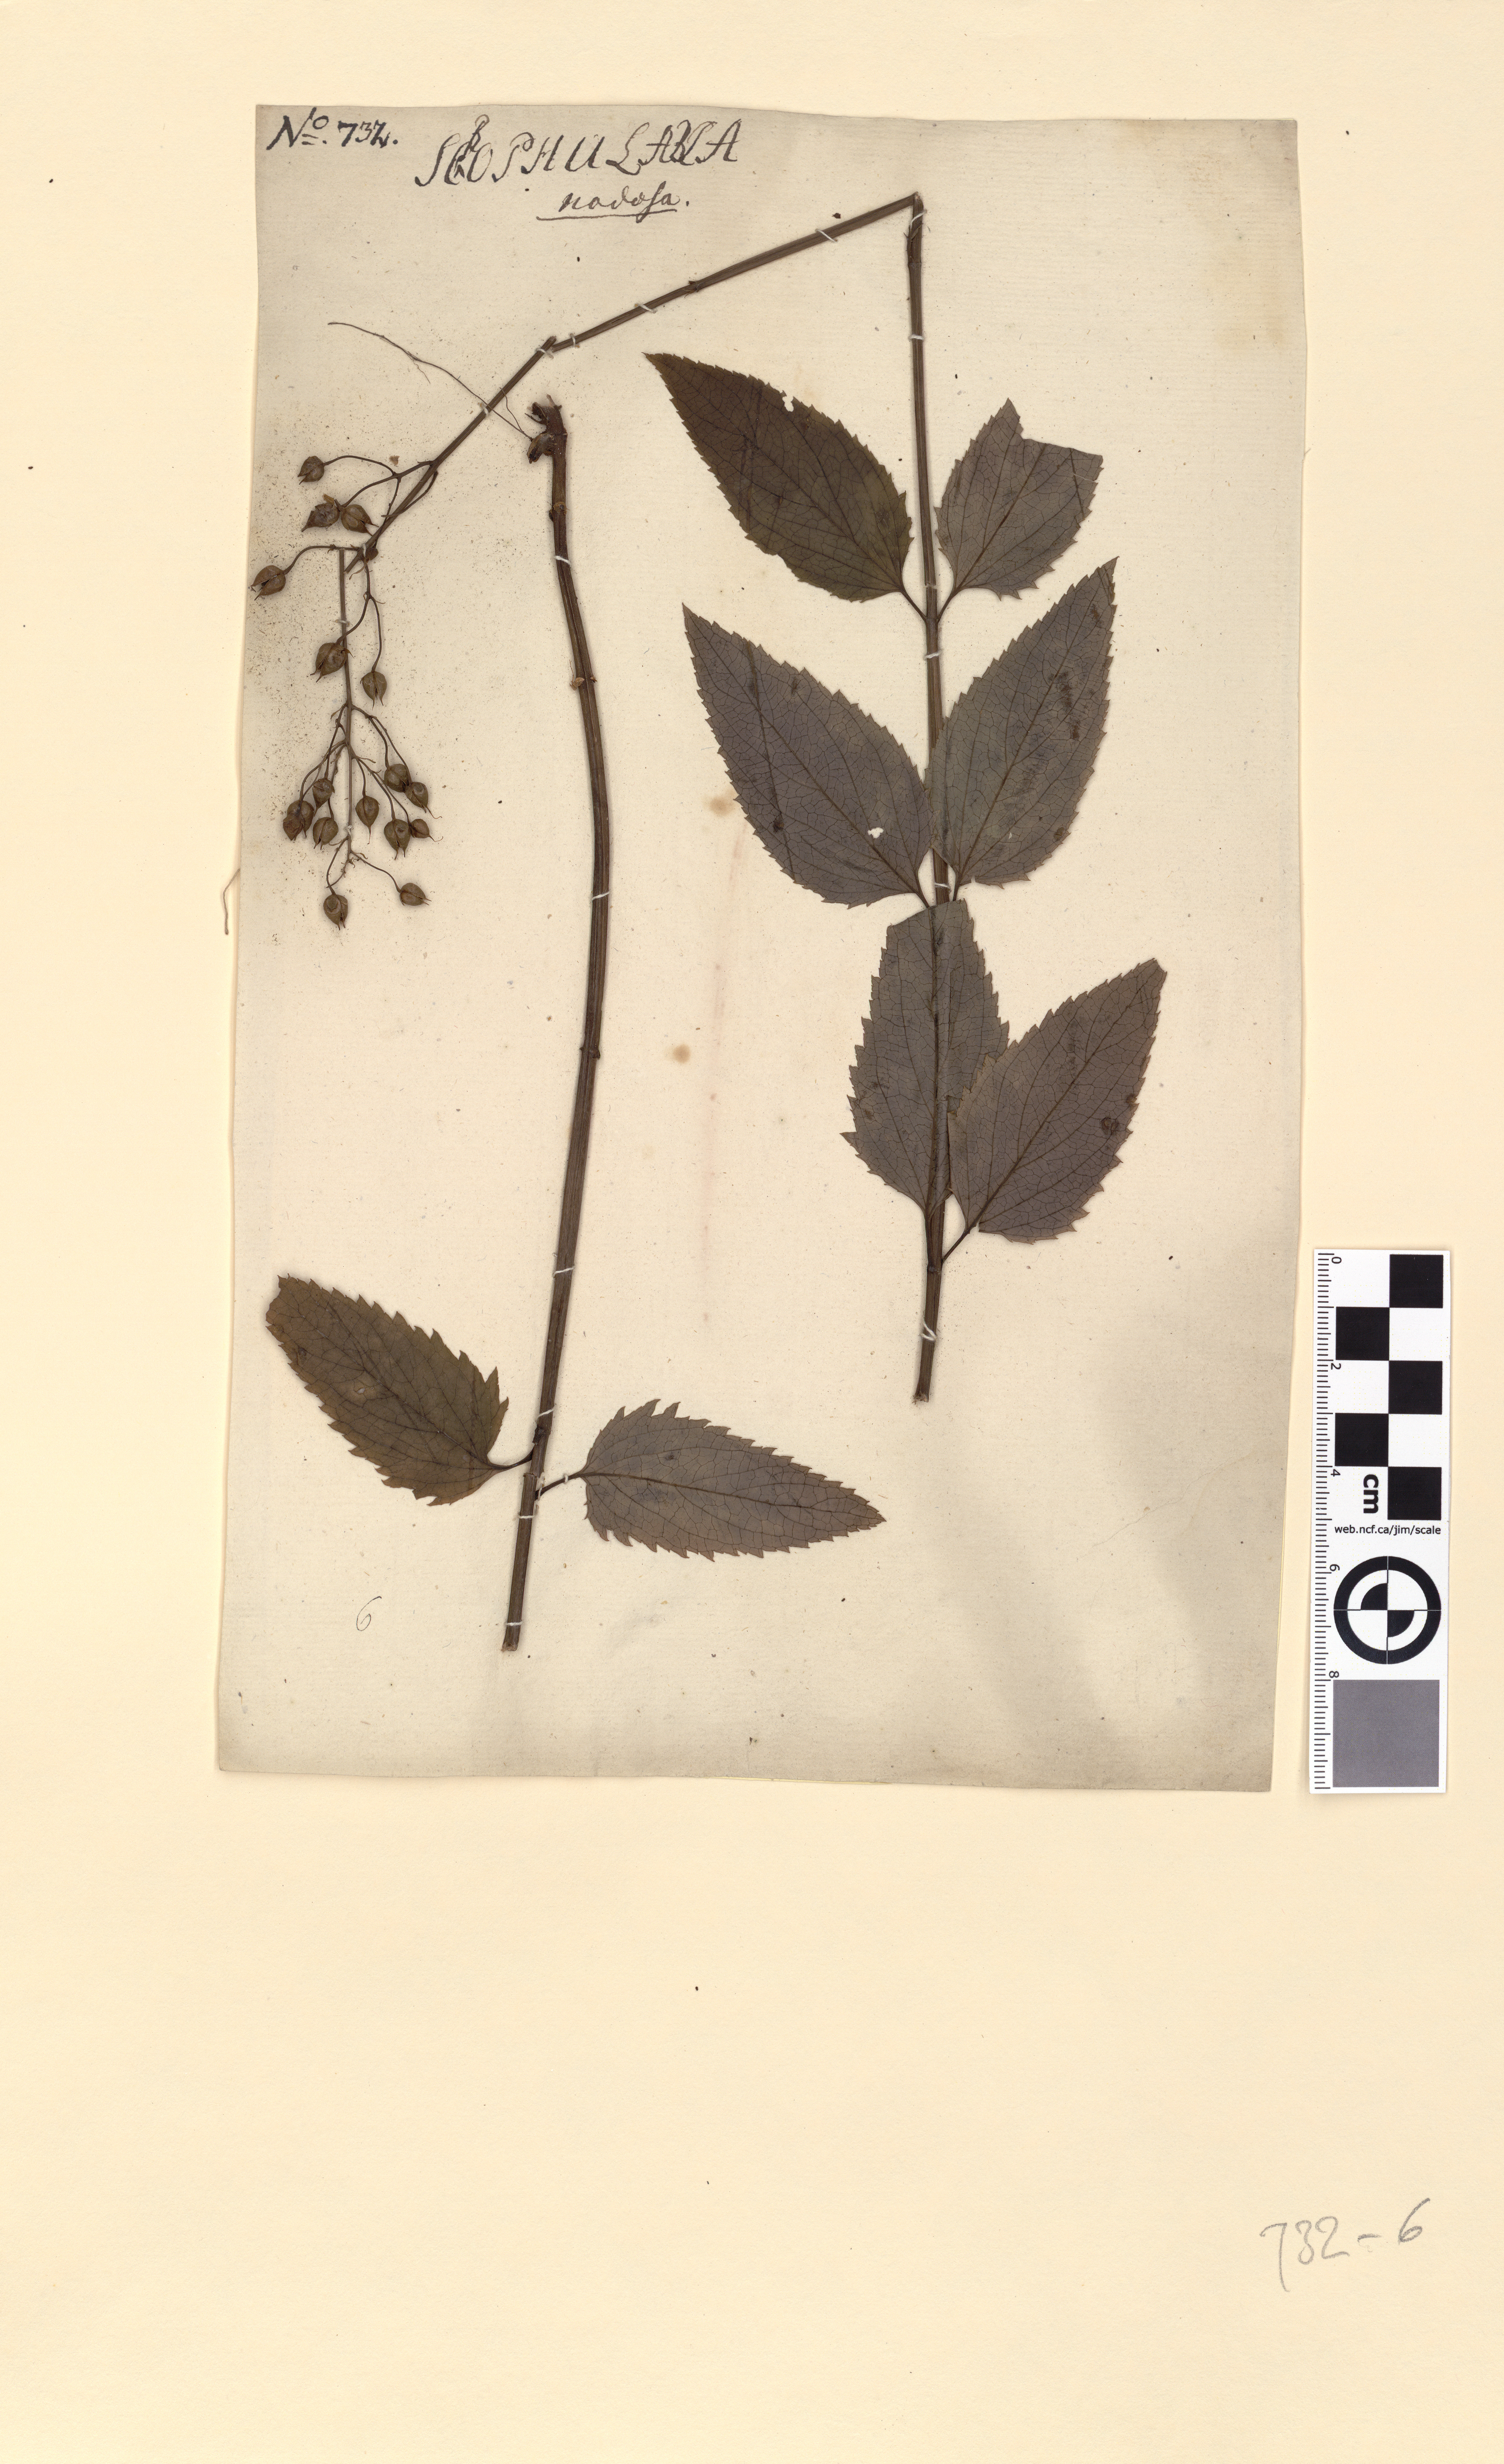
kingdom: Plantae
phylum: Tracheophyta
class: Magnoliopsida
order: Lamiales
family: Scrophulariaceae
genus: Scrophularia
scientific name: Scrophularia nodosa
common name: Common figwort
